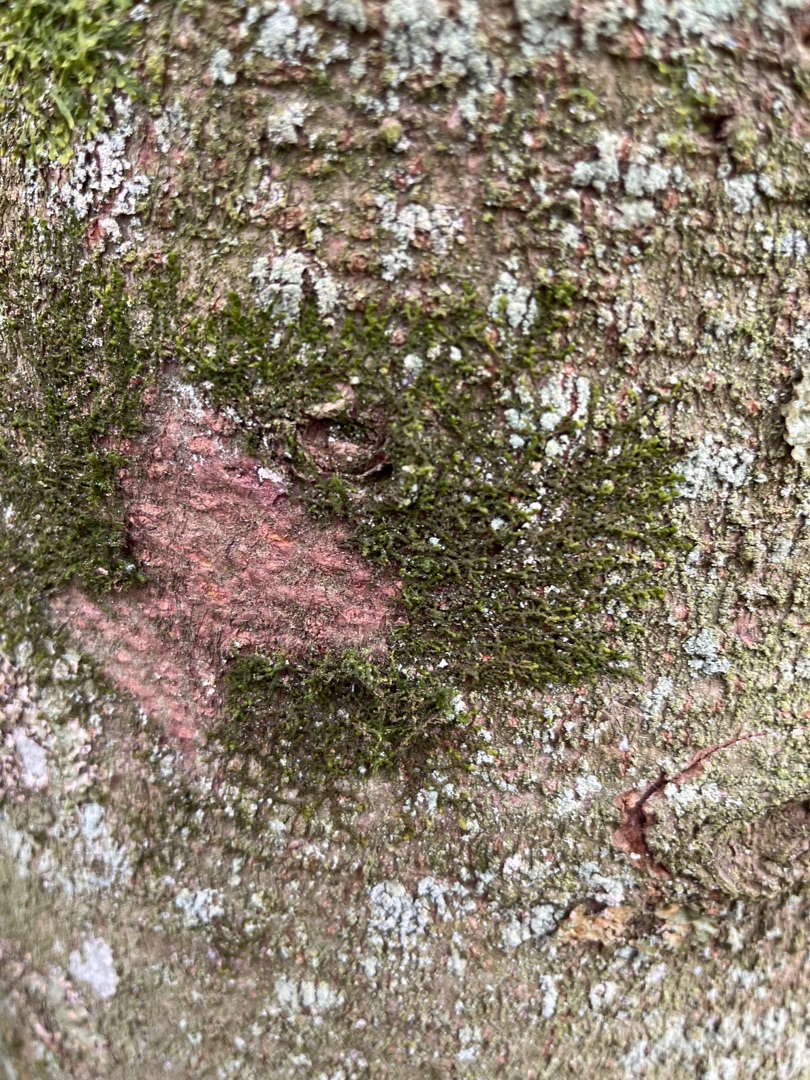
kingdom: Plantae
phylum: Marchantiophyta
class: Jungermanniopsida
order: Porellales
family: Frullaniaceae
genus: Frullania
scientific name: Frullania dilatata
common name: Mat bronzemos
